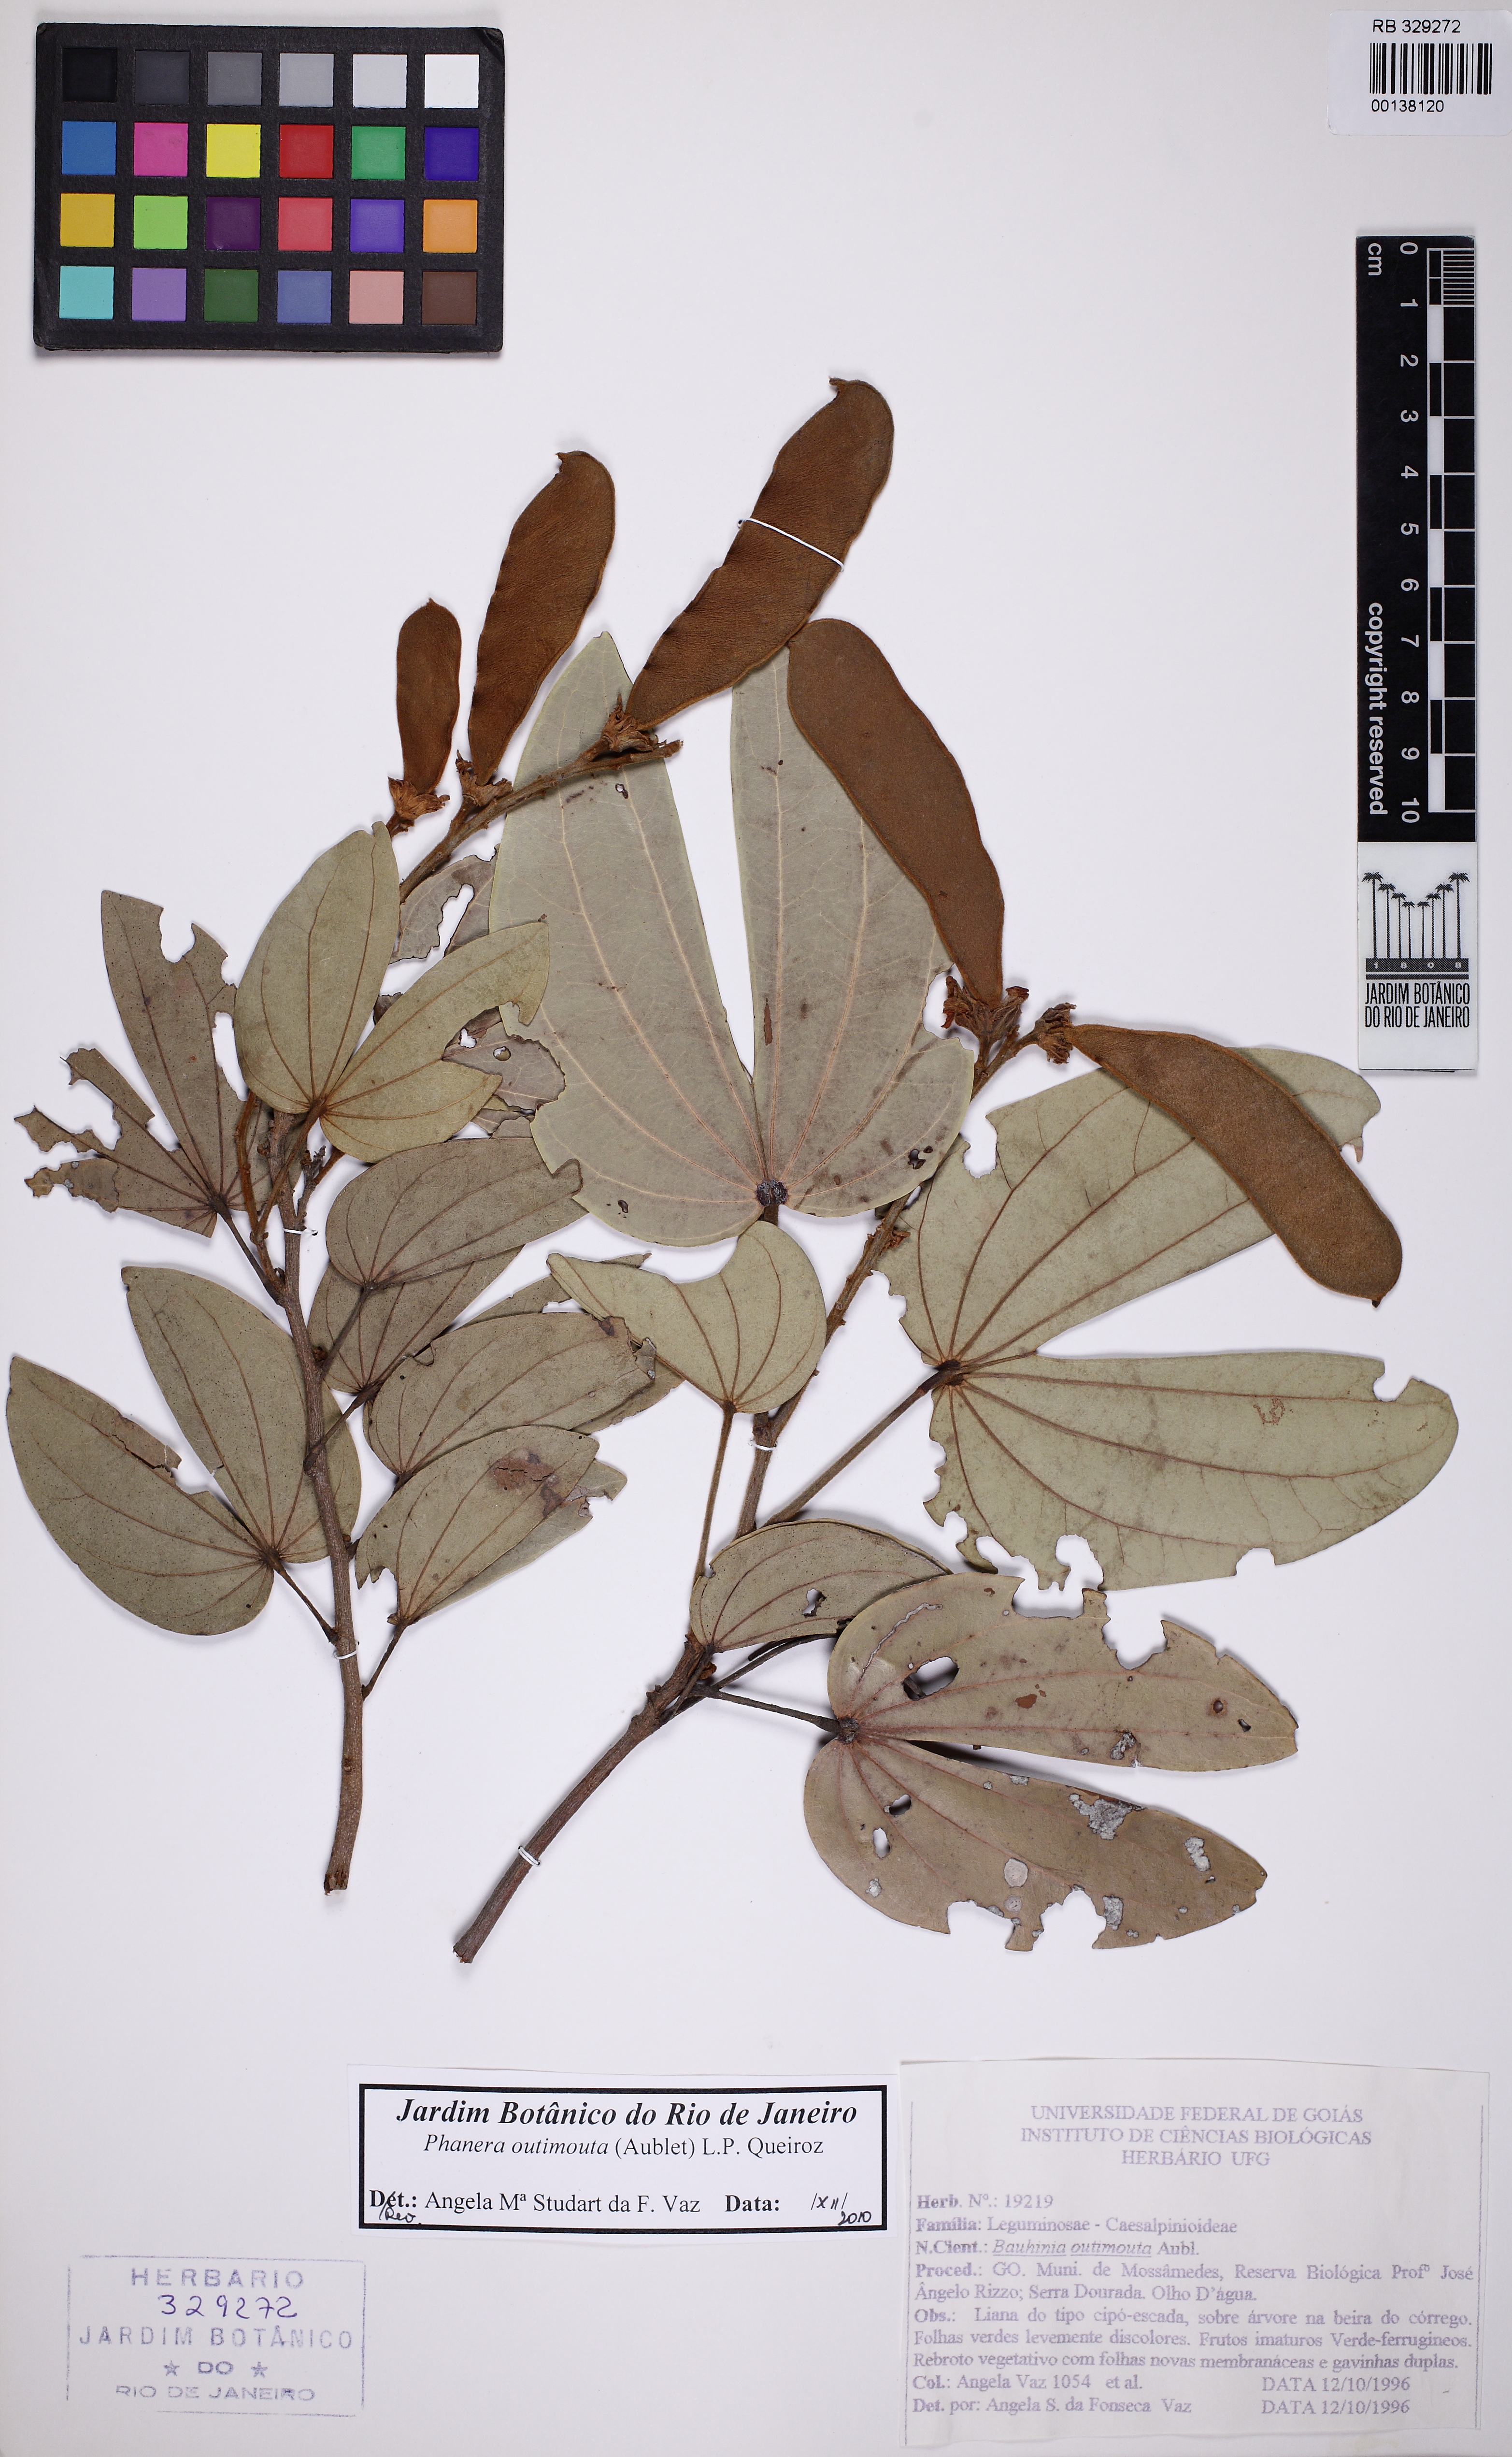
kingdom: Plantae
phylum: Tracheophyta
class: Magnoliopsida
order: Fabales
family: Fabaceae
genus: Schnella
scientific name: Schnella outimouta
